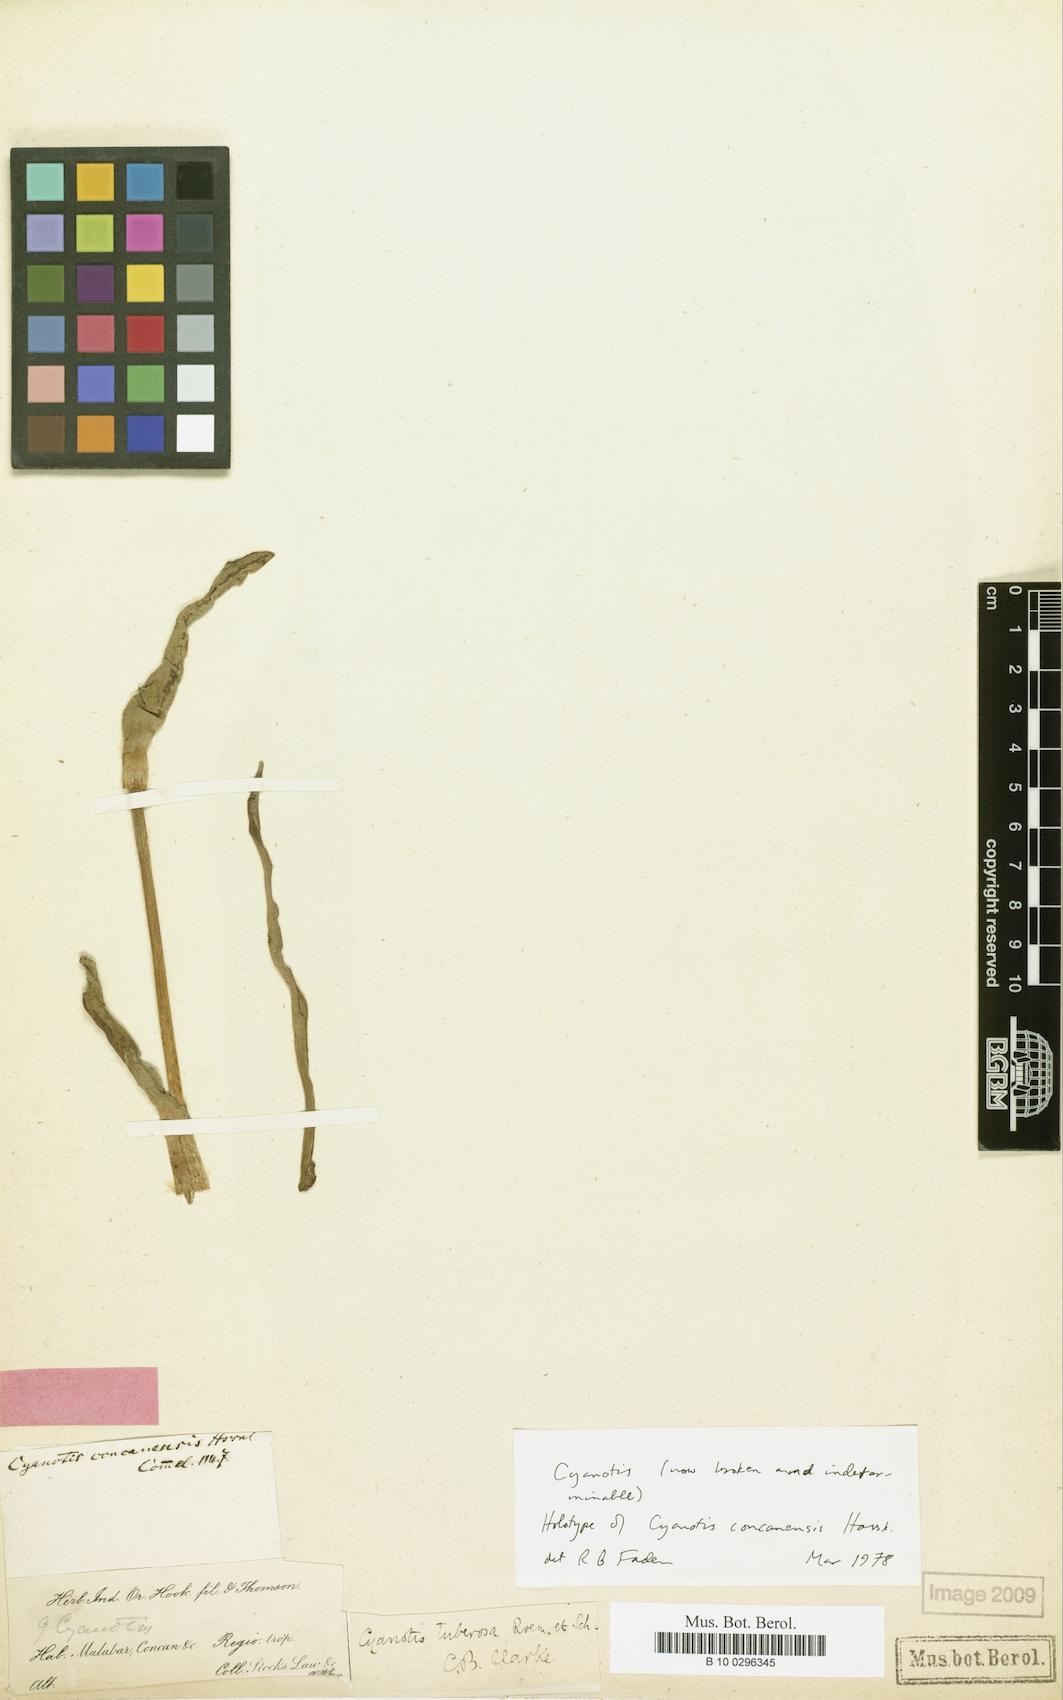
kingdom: Plantae
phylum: Tracheophyta
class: Liliopsida
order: Commelinales
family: Commelinaceae
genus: Cyanotis
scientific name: Cyanotis tuberosa
